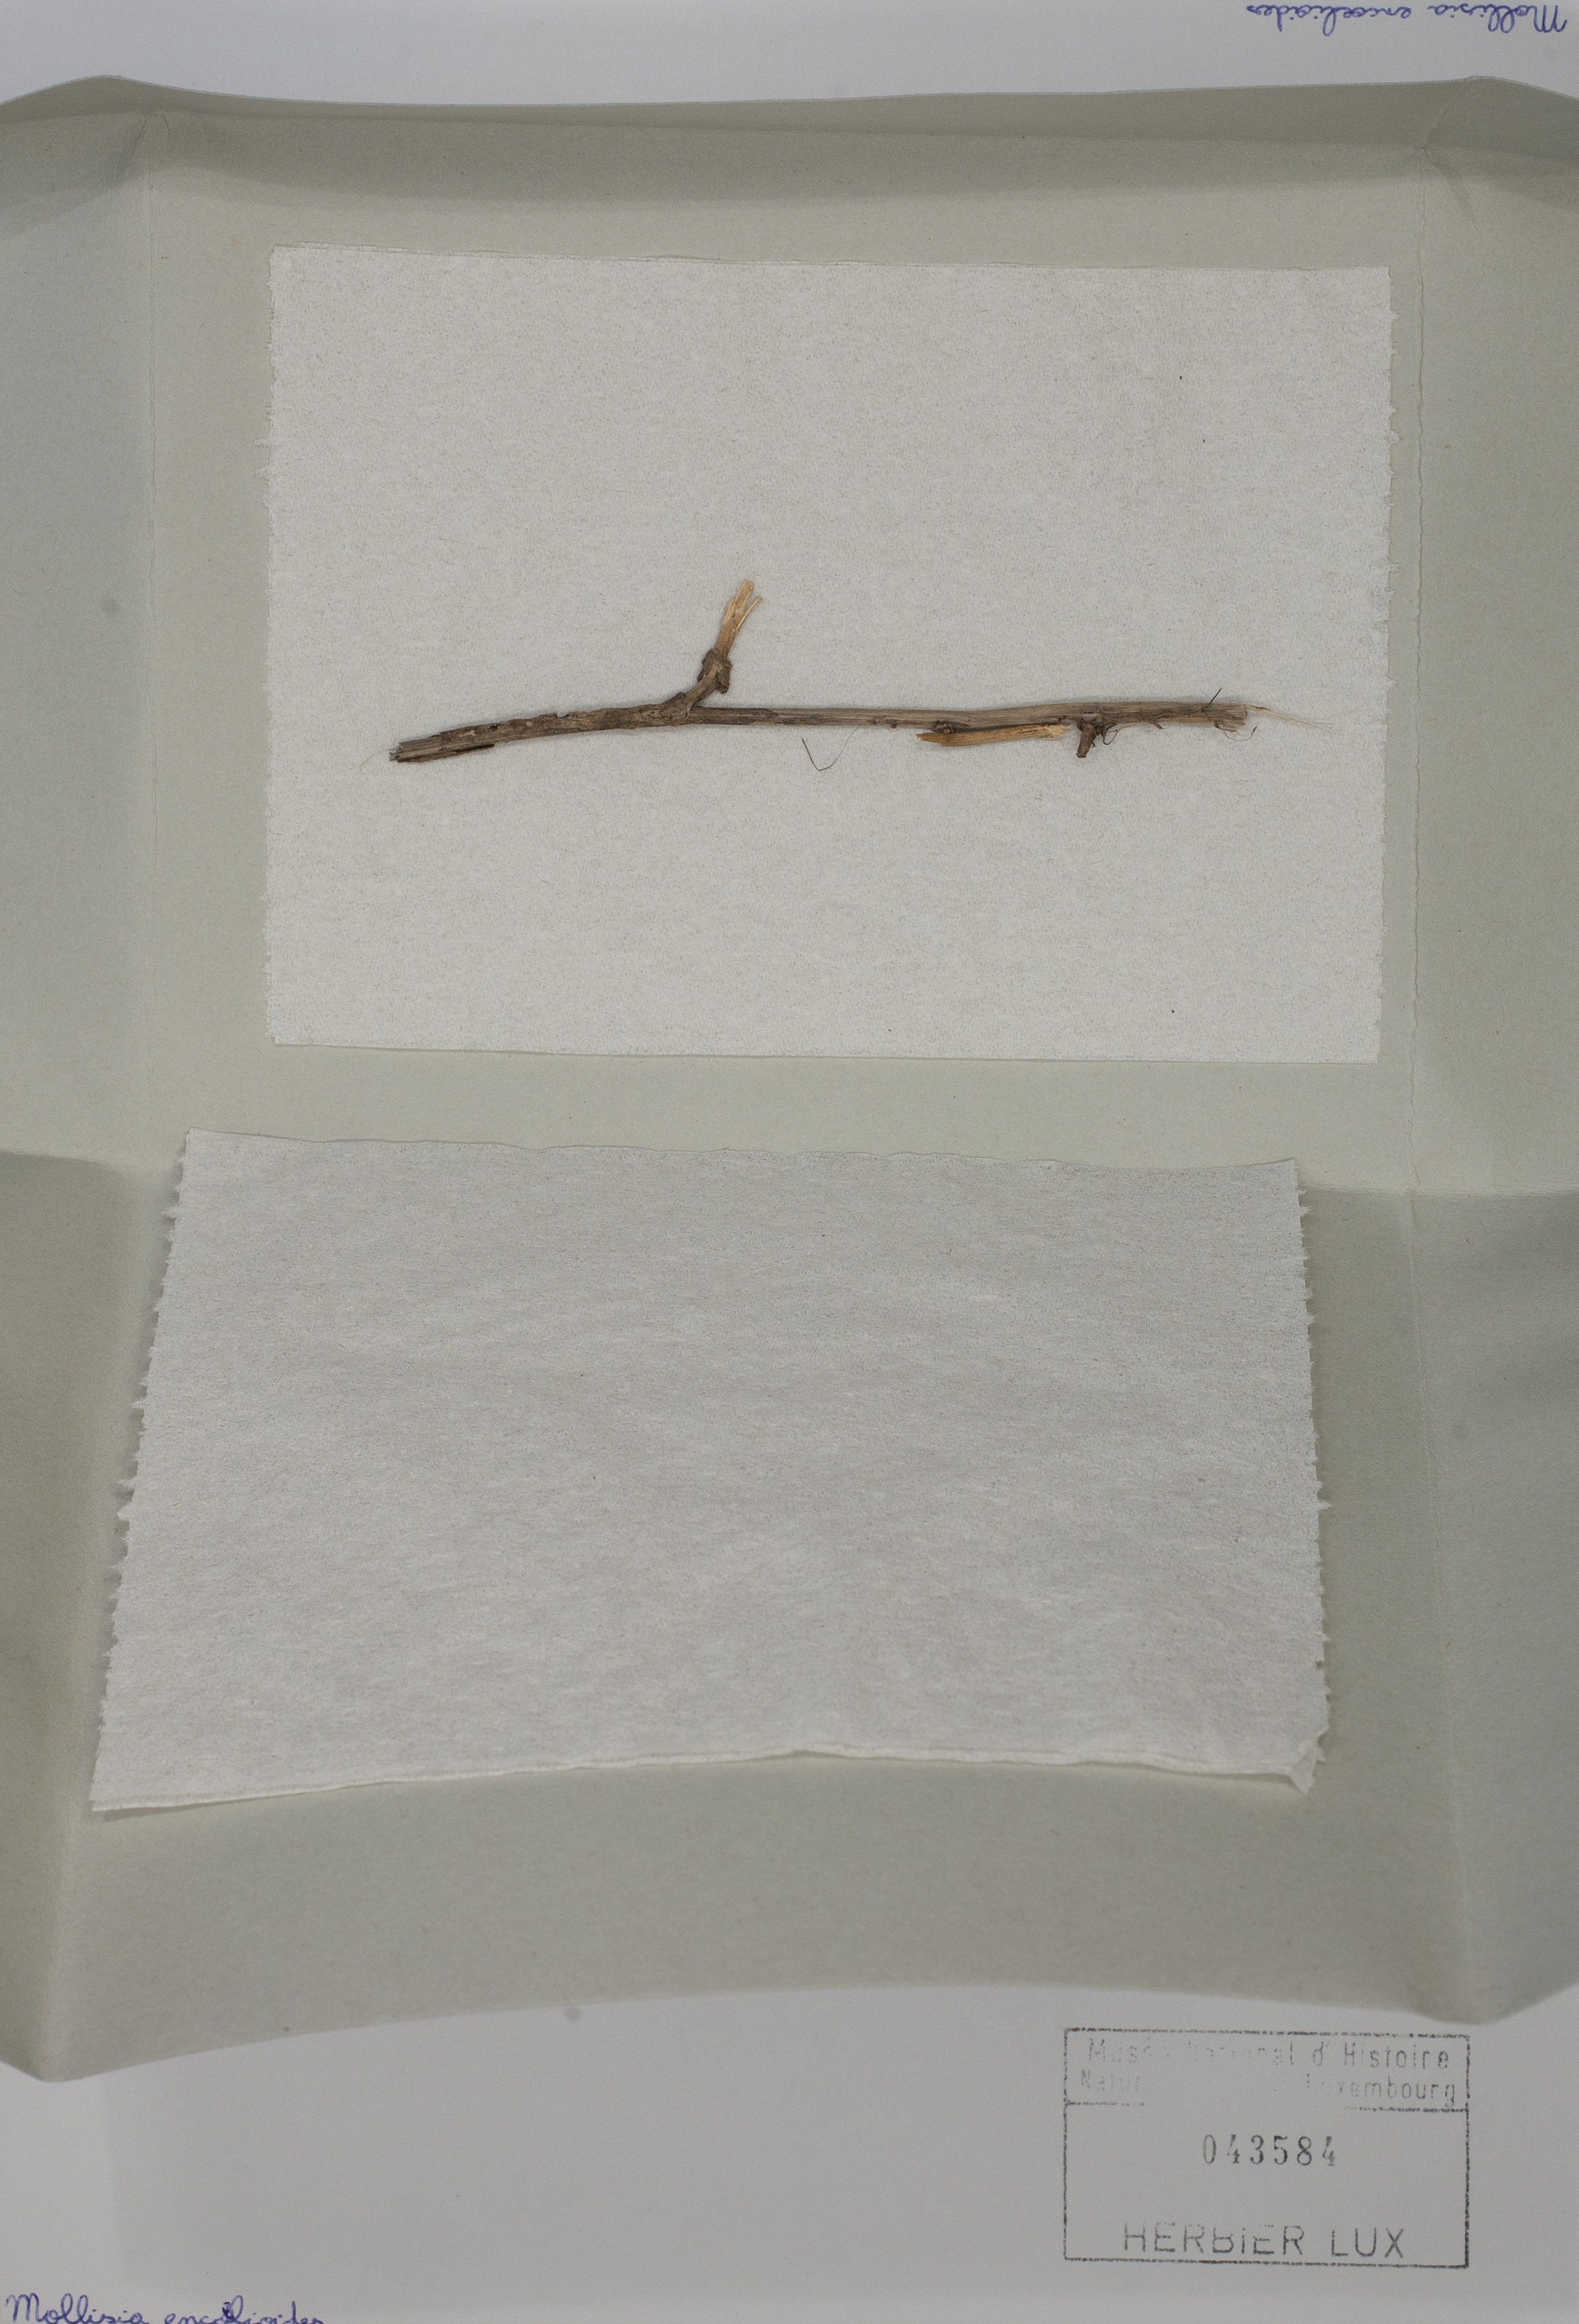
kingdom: Fungi
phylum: Ascomycota
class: Leotiomycetes
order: Helotiales
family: Pezizellaceae
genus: Velutaria
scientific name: Velutaria lignicola
